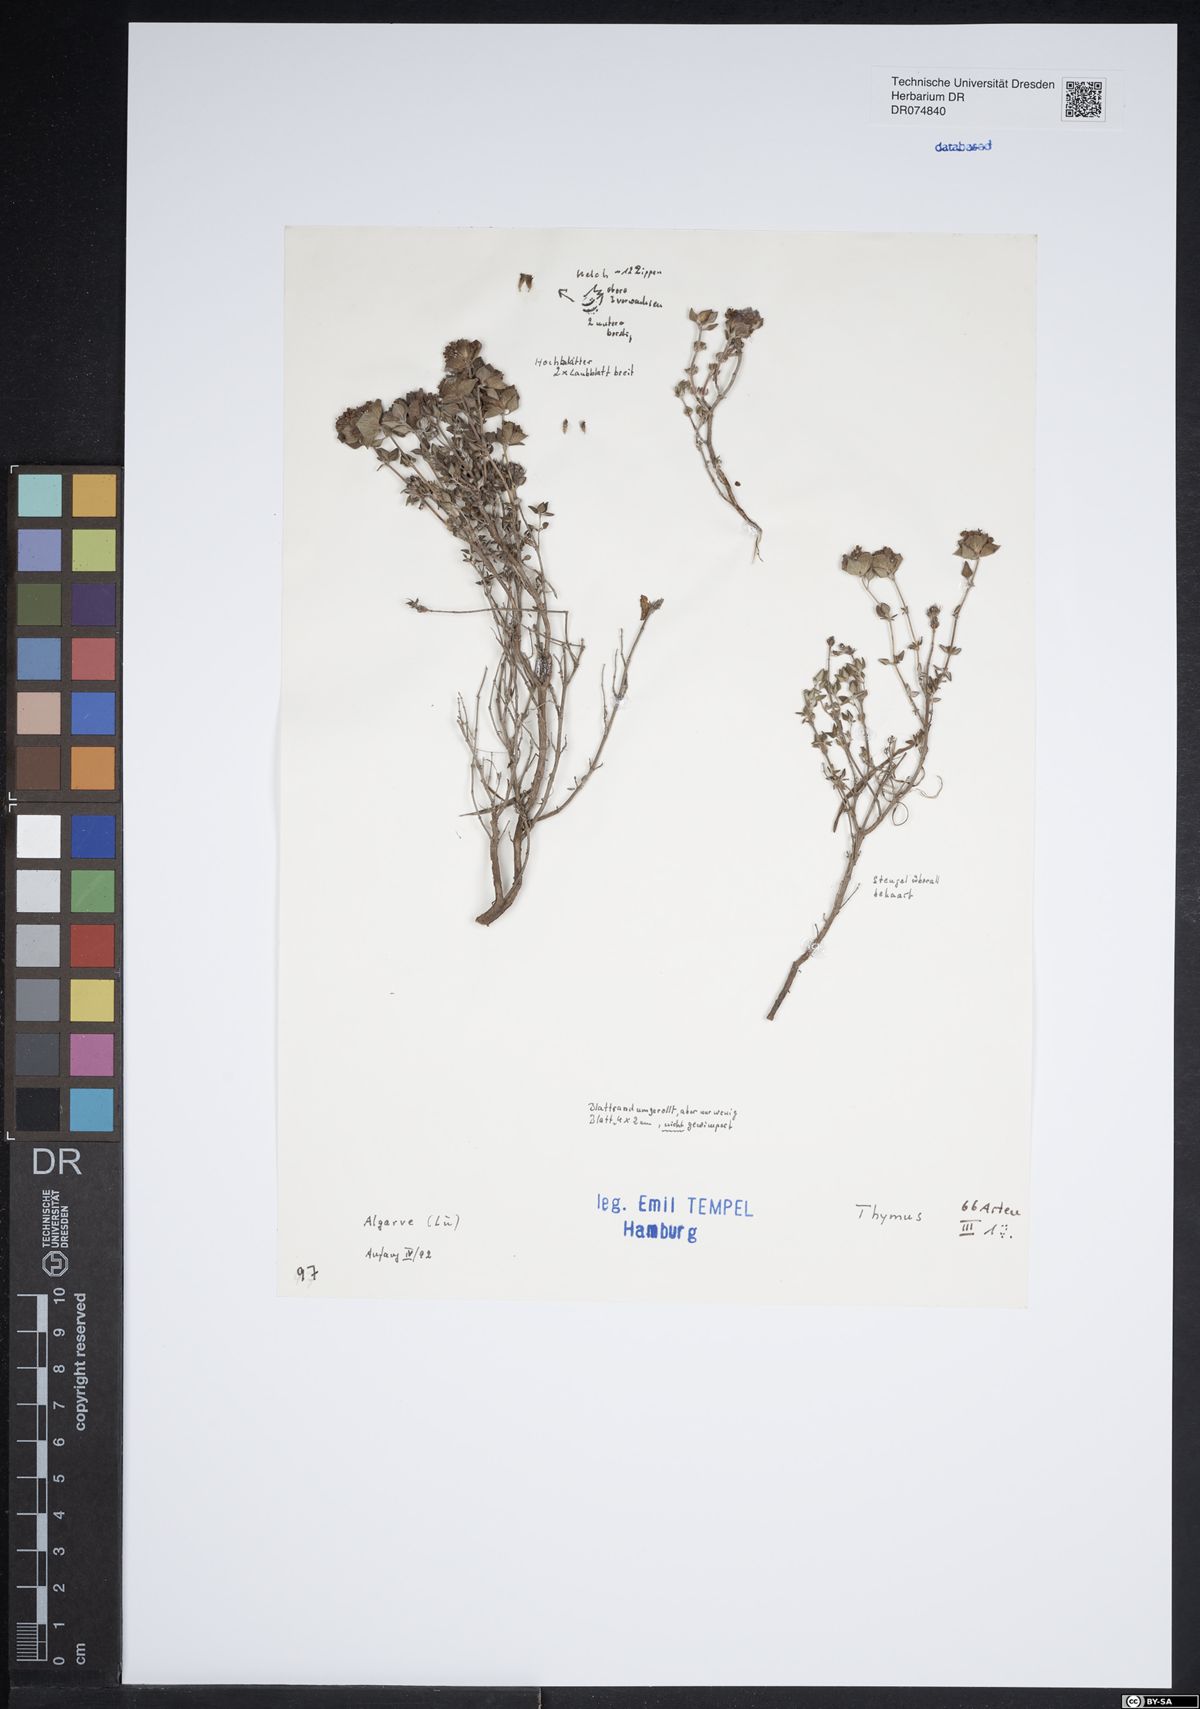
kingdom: Plantae
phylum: Tracheophyta
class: Magnoliopsida
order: Lamiales
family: Lamiaceae
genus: Thymus
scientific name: Thymus
